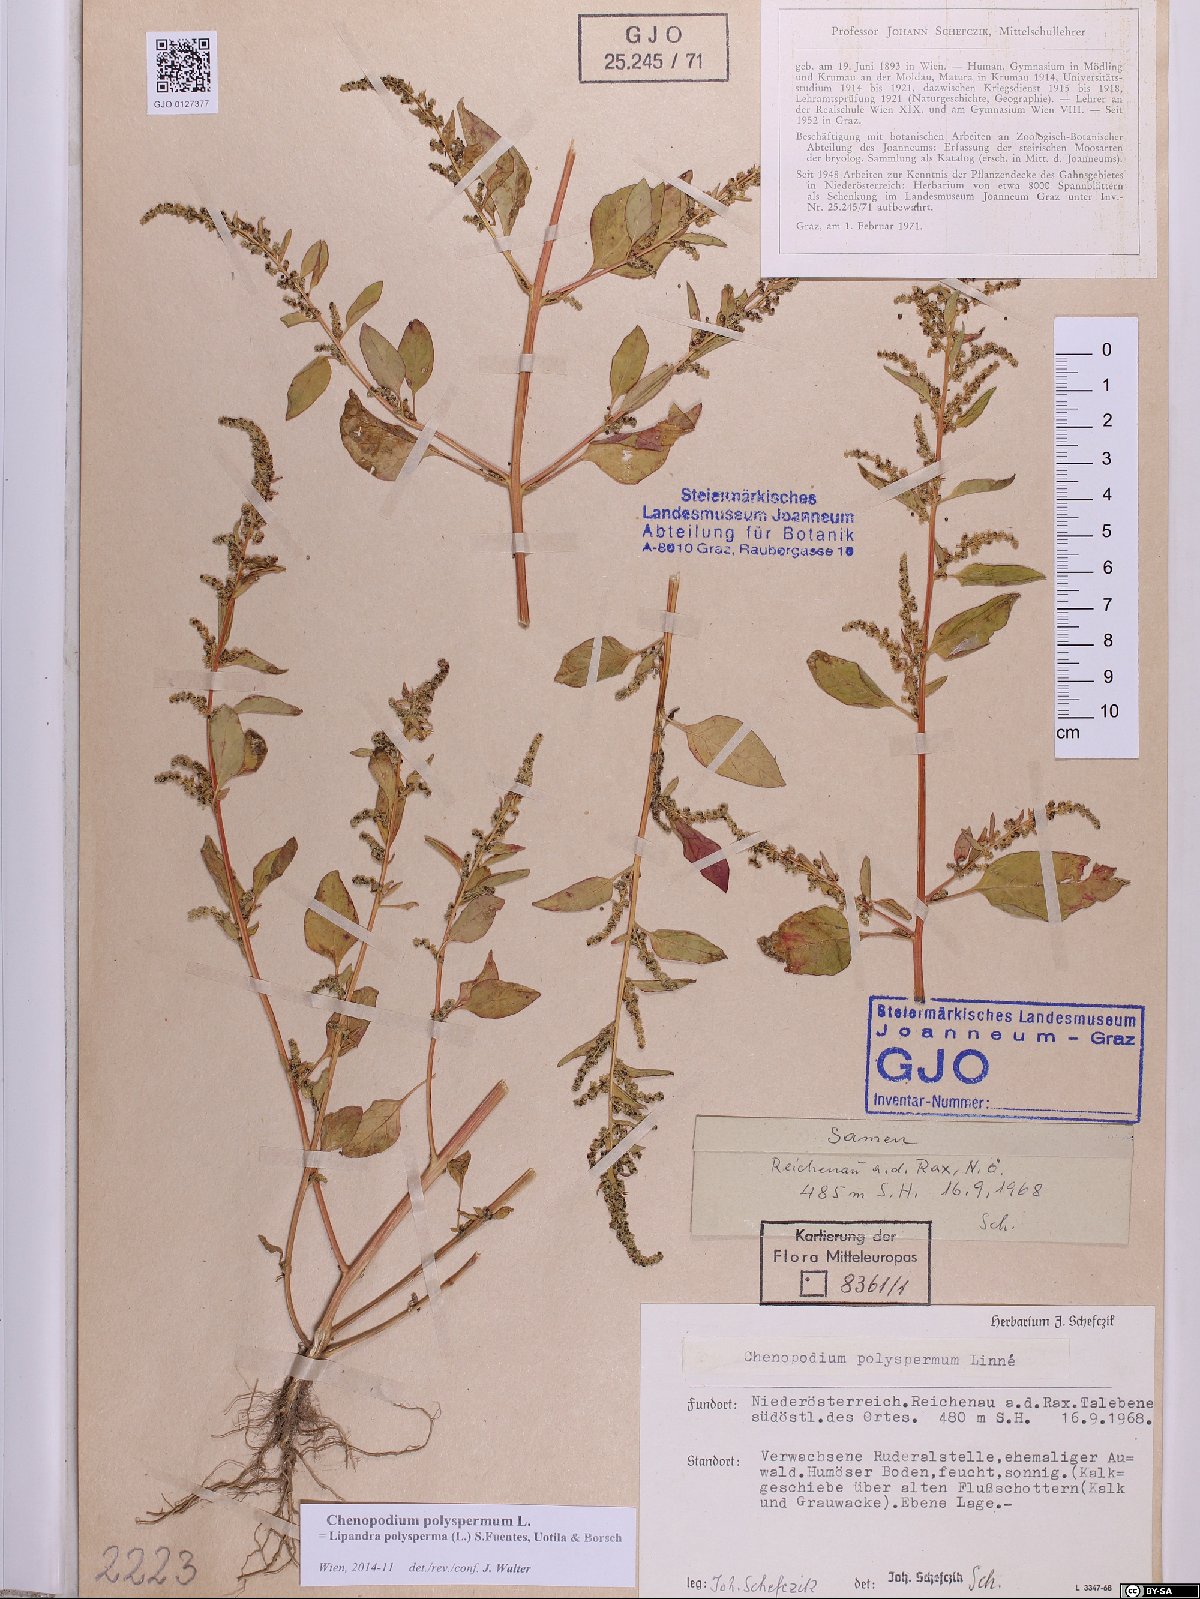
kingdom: Plantae
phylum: Tracheophyta
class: Magnoliopsida
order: Caryophyllales
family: Amaranthaceae
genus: Lipandra
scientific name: Lipandra polysperma
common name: Many-seed goosefoot
